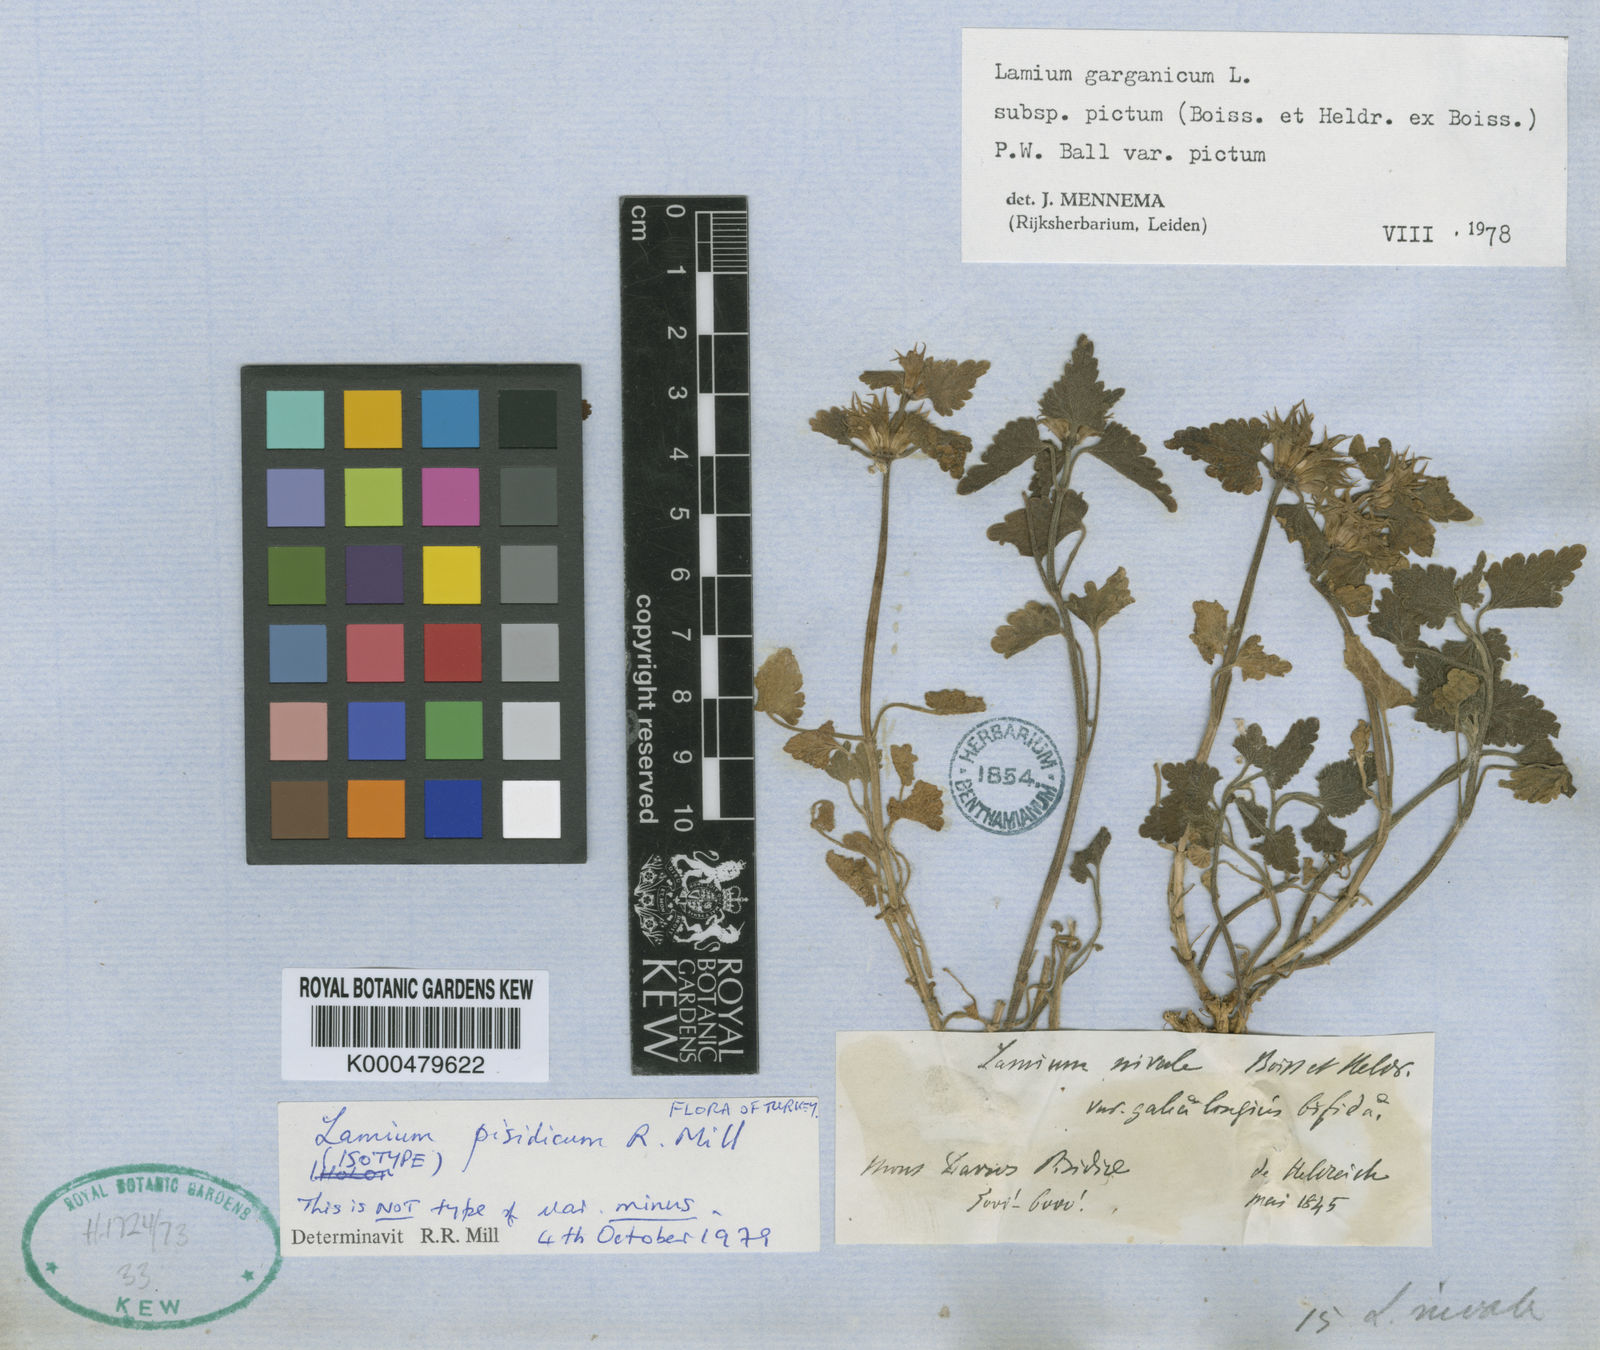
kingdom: Plantae
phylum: Tracheophyta
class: Magnoliopsida
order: Lamiales
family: Lamiaceae
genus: Lamium
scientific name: Lamium garganicum
